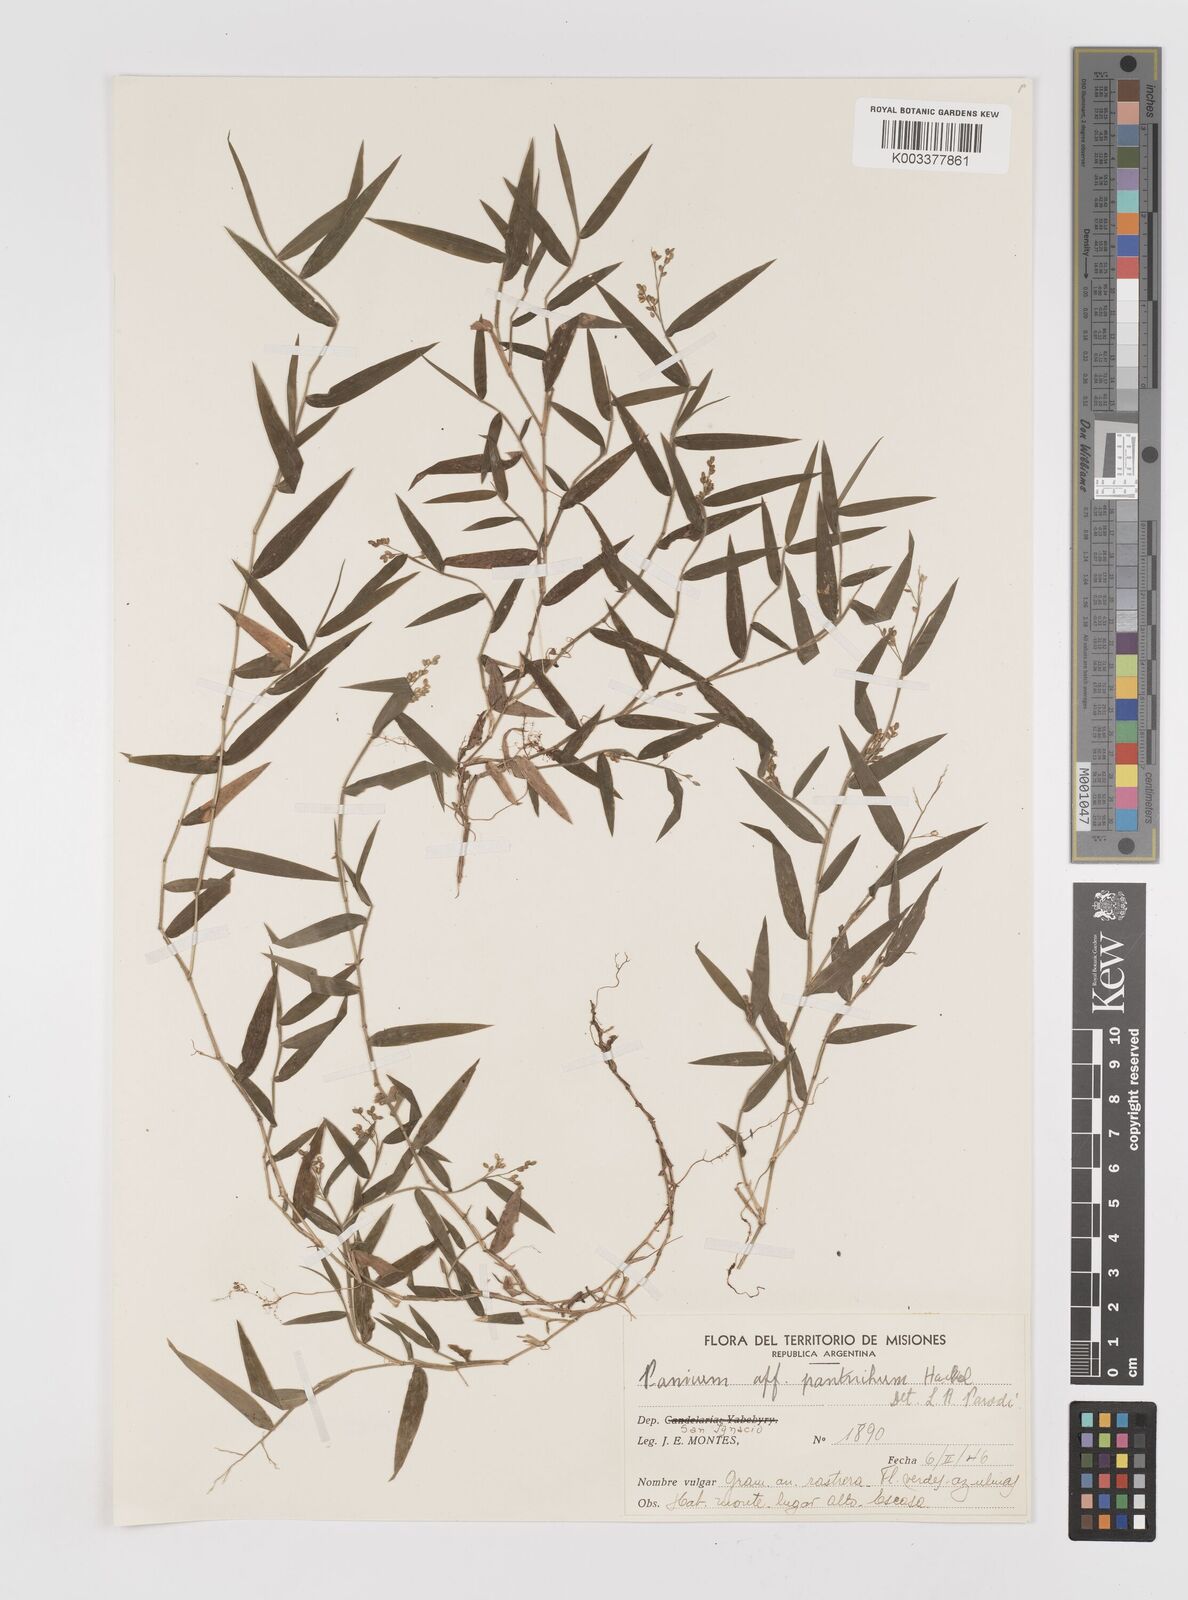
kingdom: Plantae
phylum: Tracheophyta
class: Liliopsida
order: Poales
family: Poaceae
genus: Parodiophyllochloa
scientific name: Parodiophyllochloa pantricha
